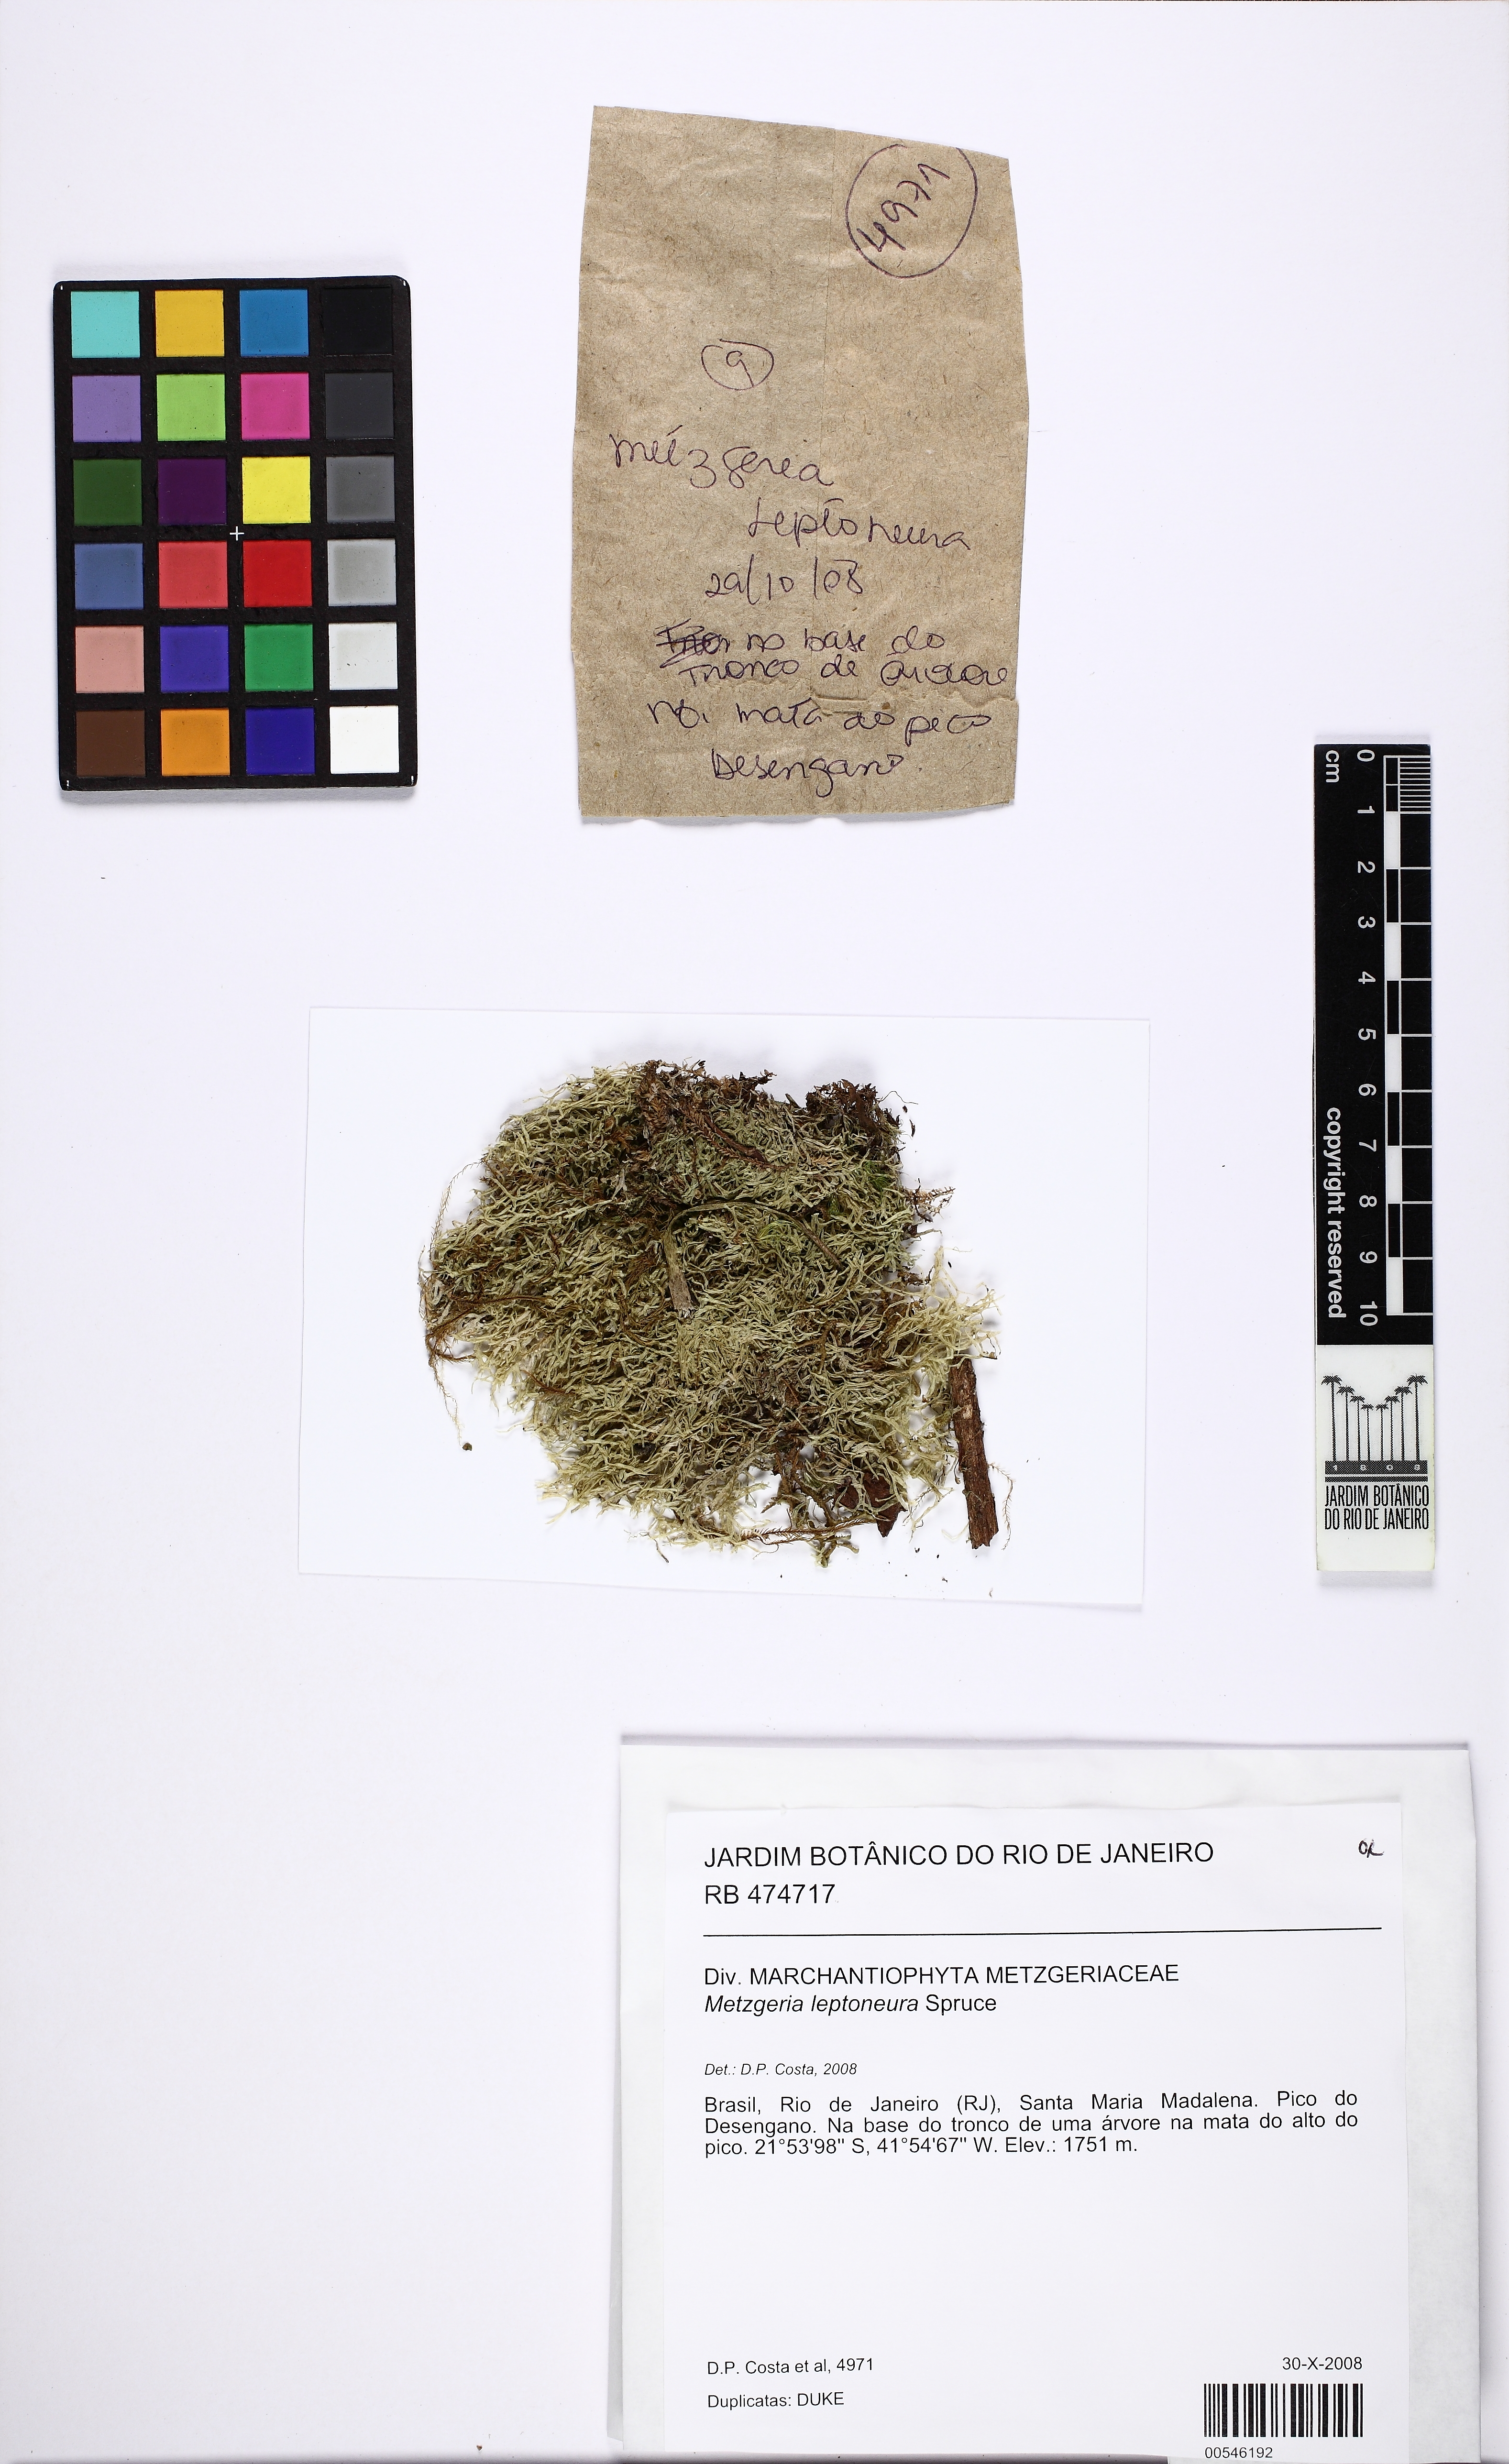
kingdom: Plantae
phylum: Marchantiophyta
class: Jungermanniopsida
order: Metzgeriales
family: Metzgeriaceae
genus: Metzgeria
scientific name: Metzgeria leptoneura
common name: Hooked veilwort
